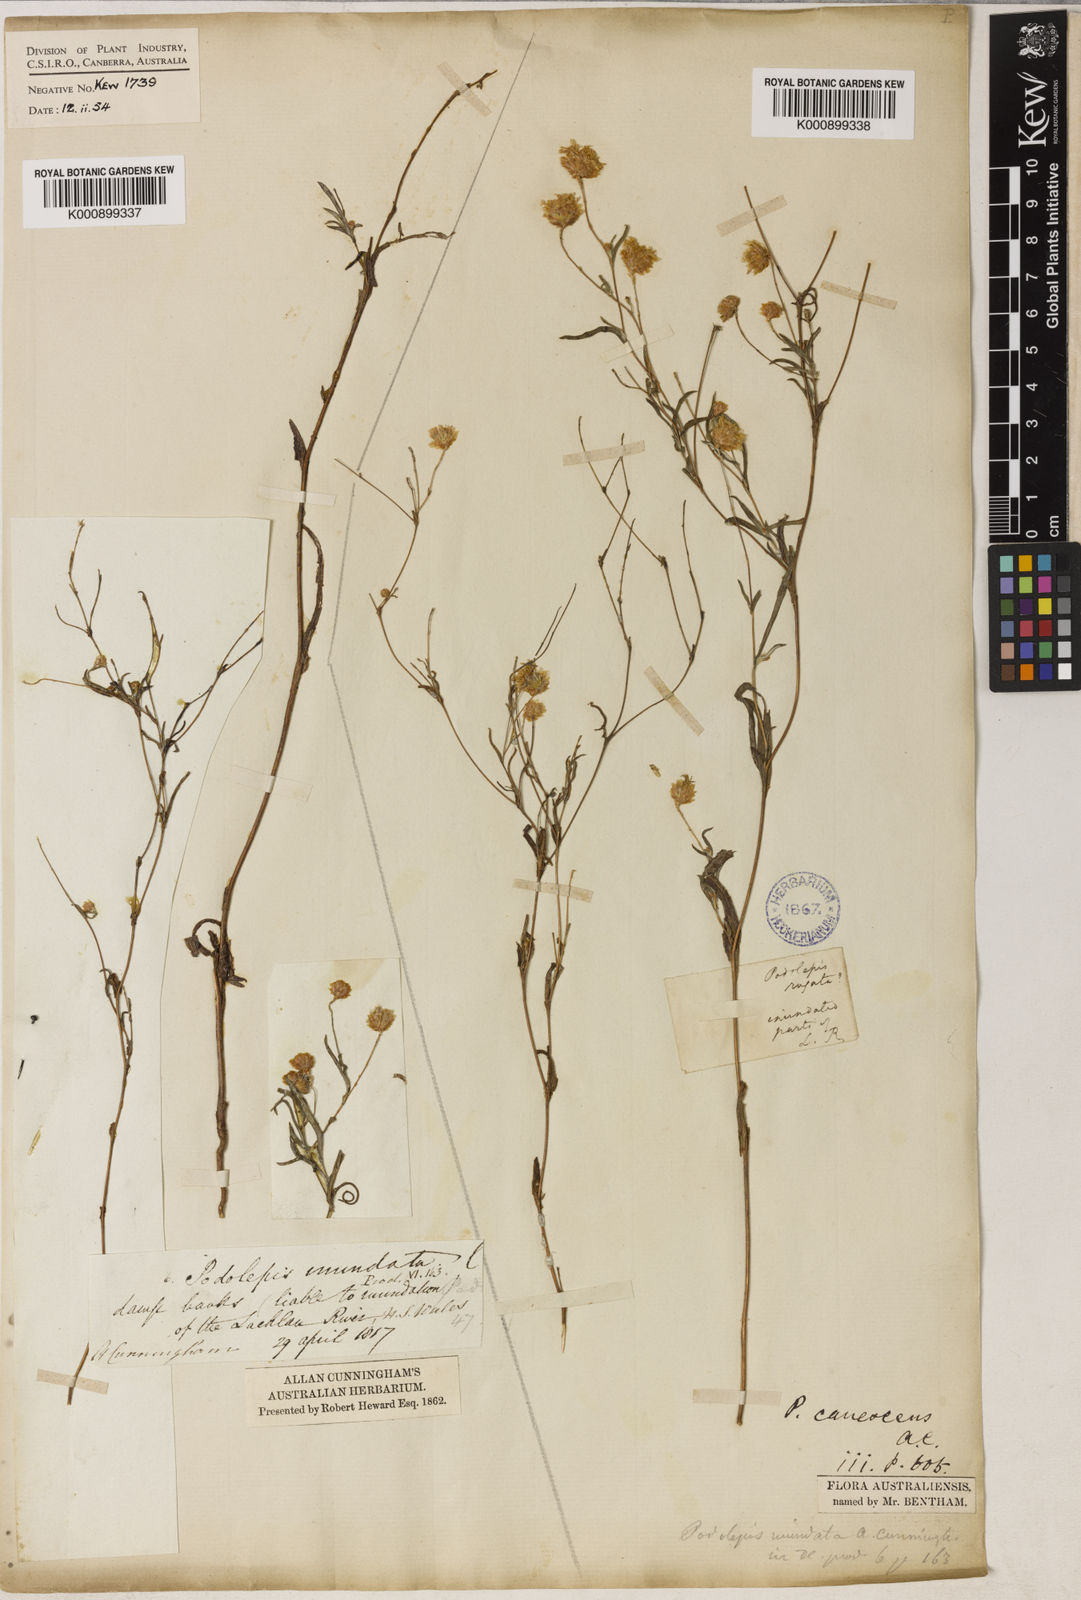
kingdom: Plantae
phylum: Tracheophyta
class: Magnoliopsida
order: Asterales
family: Asteraceae
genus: Podolepis
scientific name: Podolepis canescens
